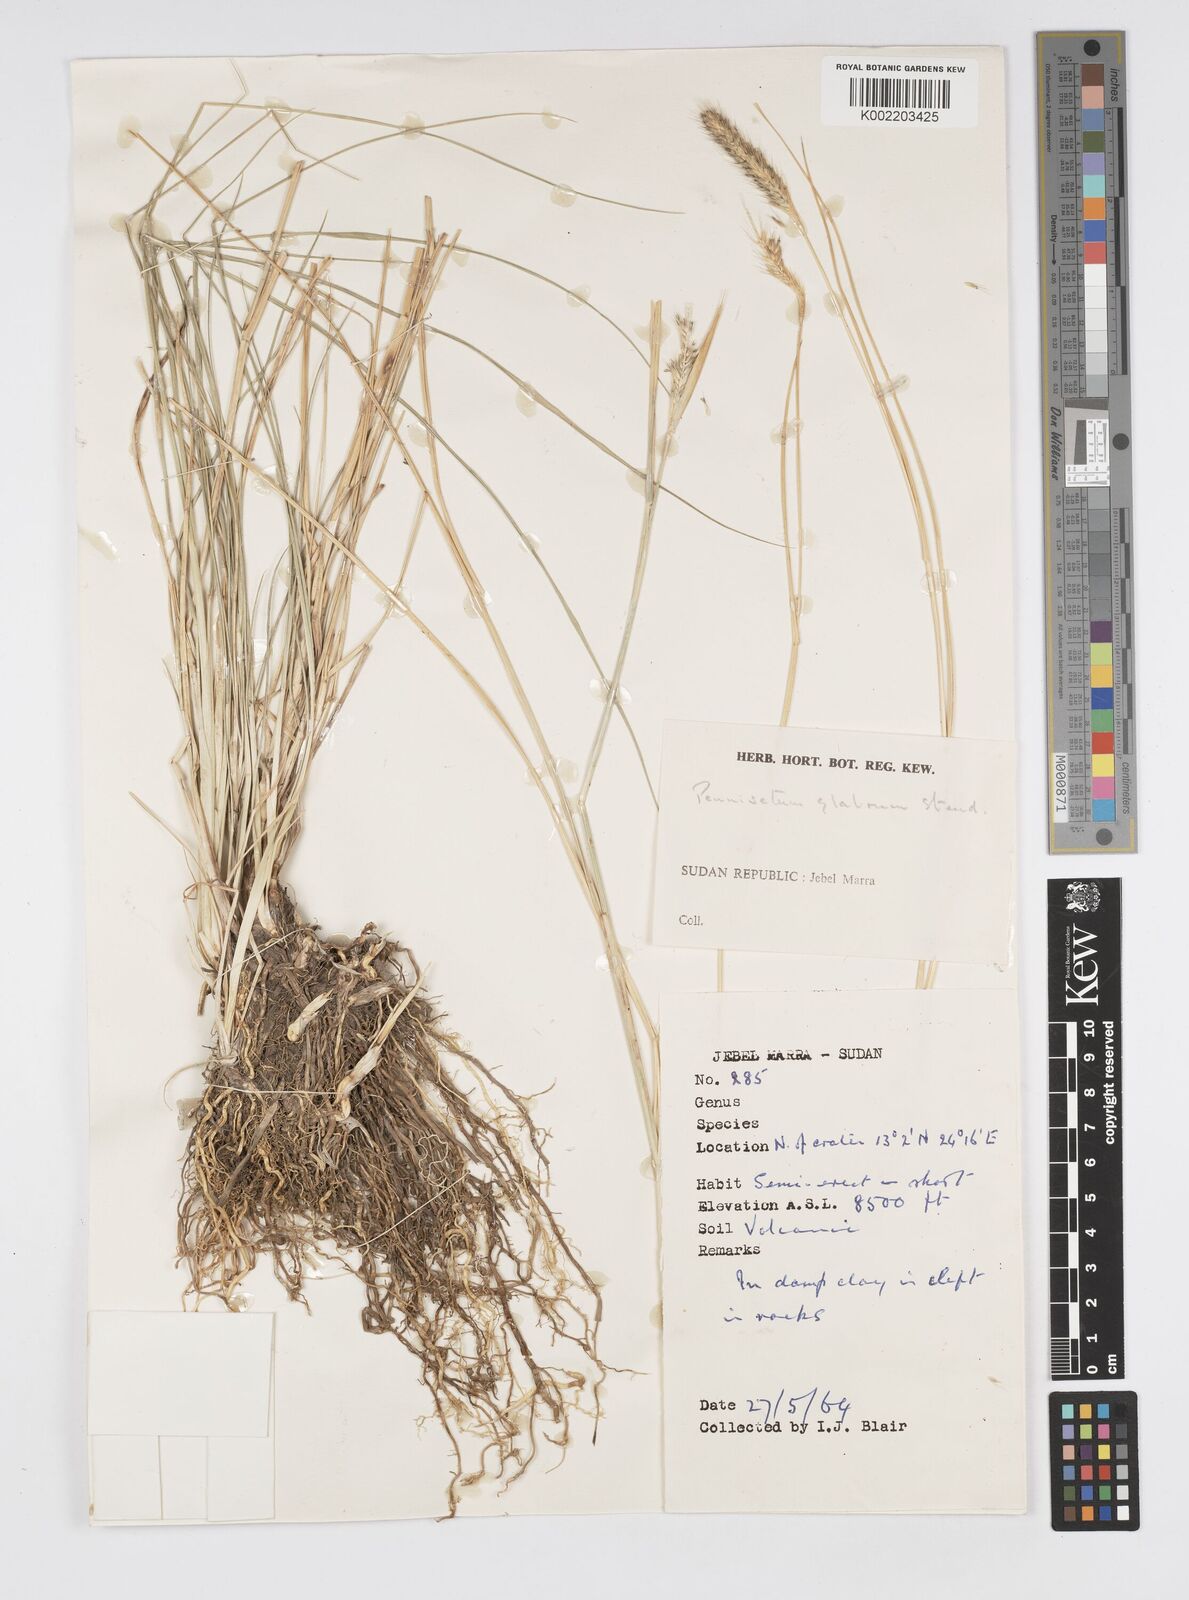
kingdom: Plantae
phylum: Tracheophyta
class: Liliopsida
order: Poales
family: Poaceae
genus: Cenchrus
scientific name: Cenchrus geniculatus
